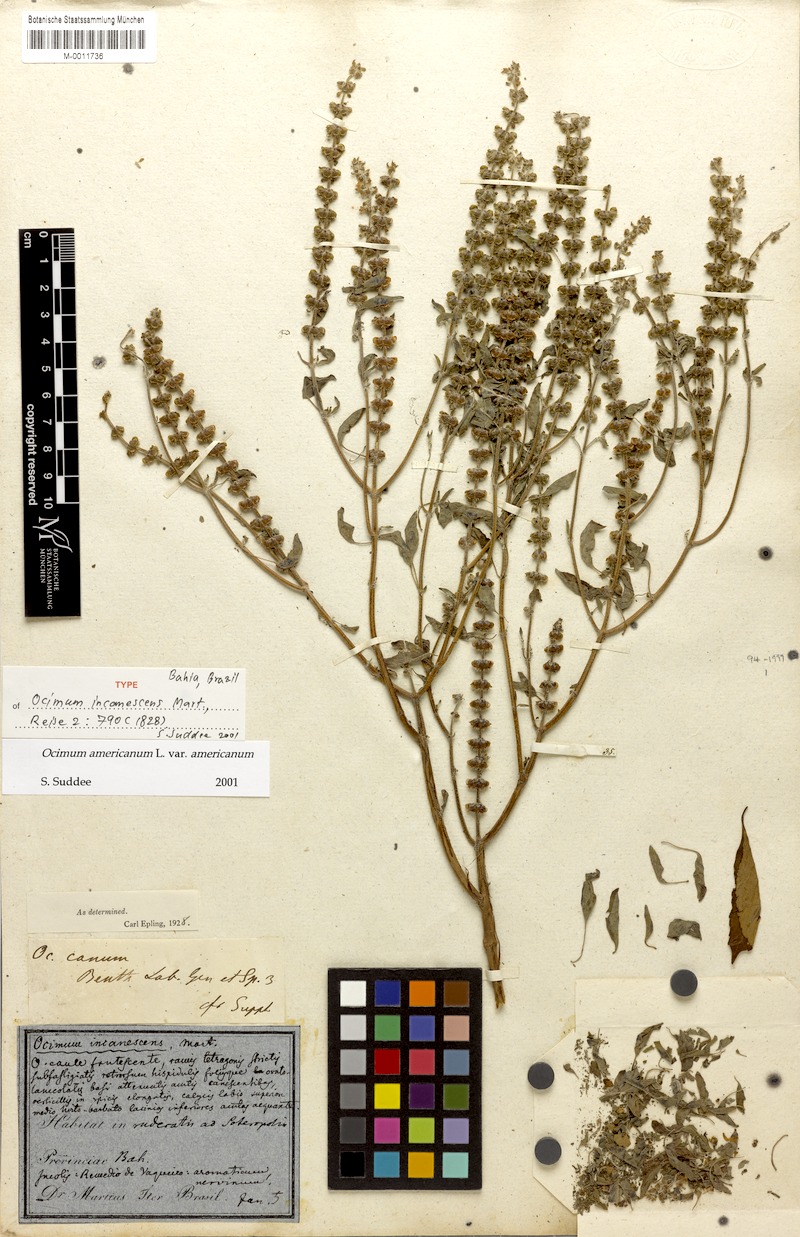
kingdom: Plantae
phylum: Tracheophyta
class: Magnoliopsida
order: Lamiales
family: Lamiaceae
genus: Ocimum
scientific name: Ocimum americanum
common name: American basil
